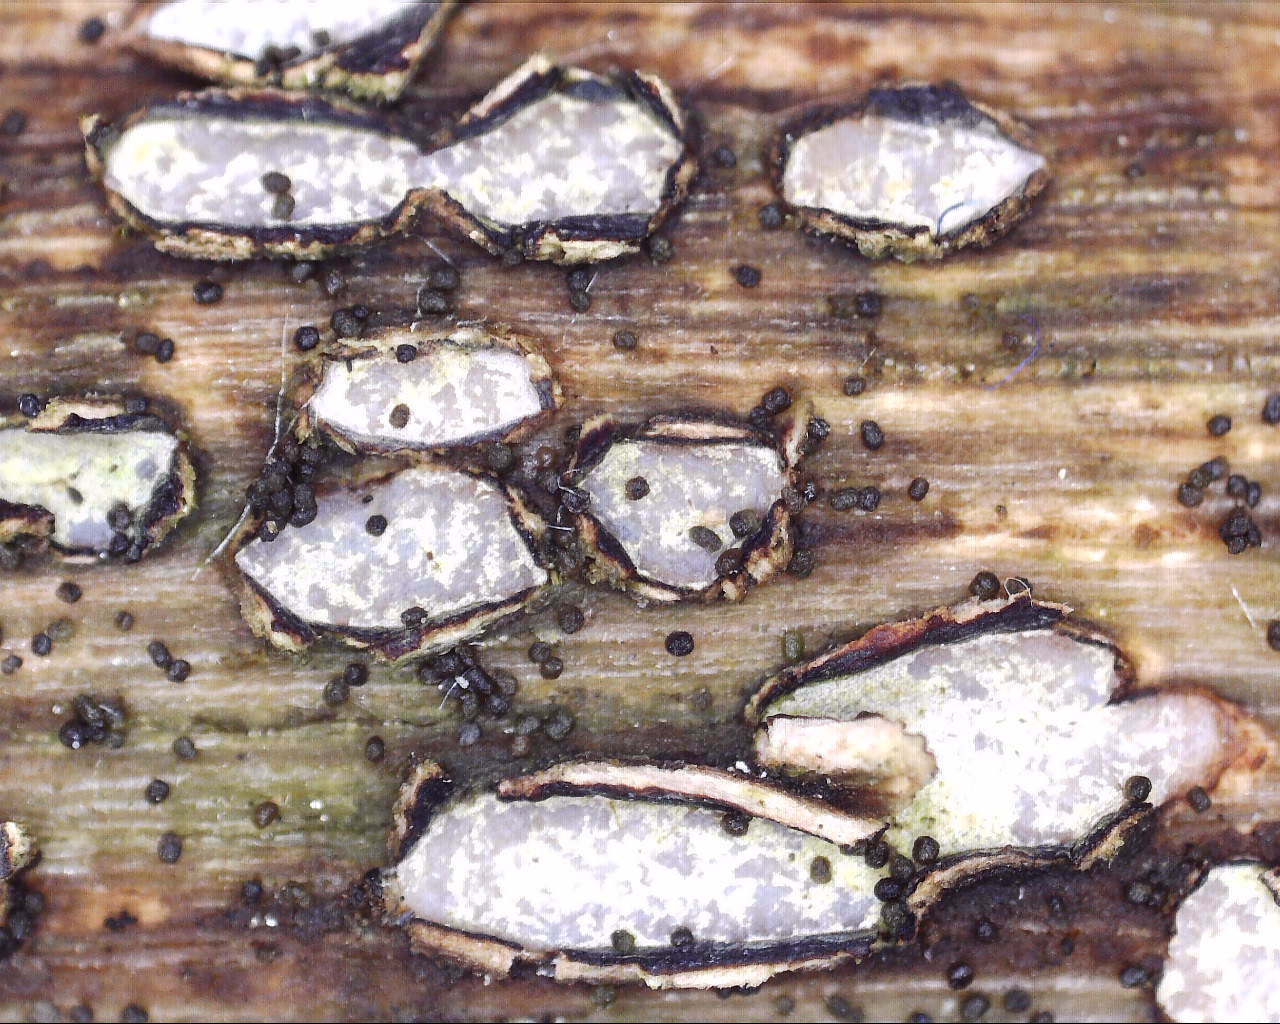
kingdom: Fungi
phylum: Ascomycota
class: Leotiomycetes
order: Chaetomellales
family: Marthamycetaceae
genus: Propolis
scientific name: Propolis farinosa
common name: almindelig vedsprængerskive
